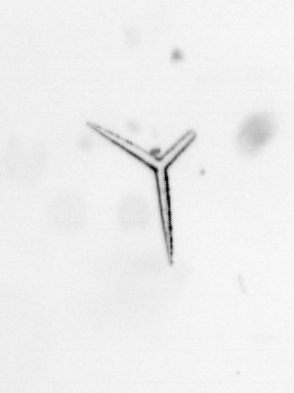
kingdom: Chromista
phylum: Ochrophyta
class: Bacillariophyceae
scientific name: Bacillariophyceae
